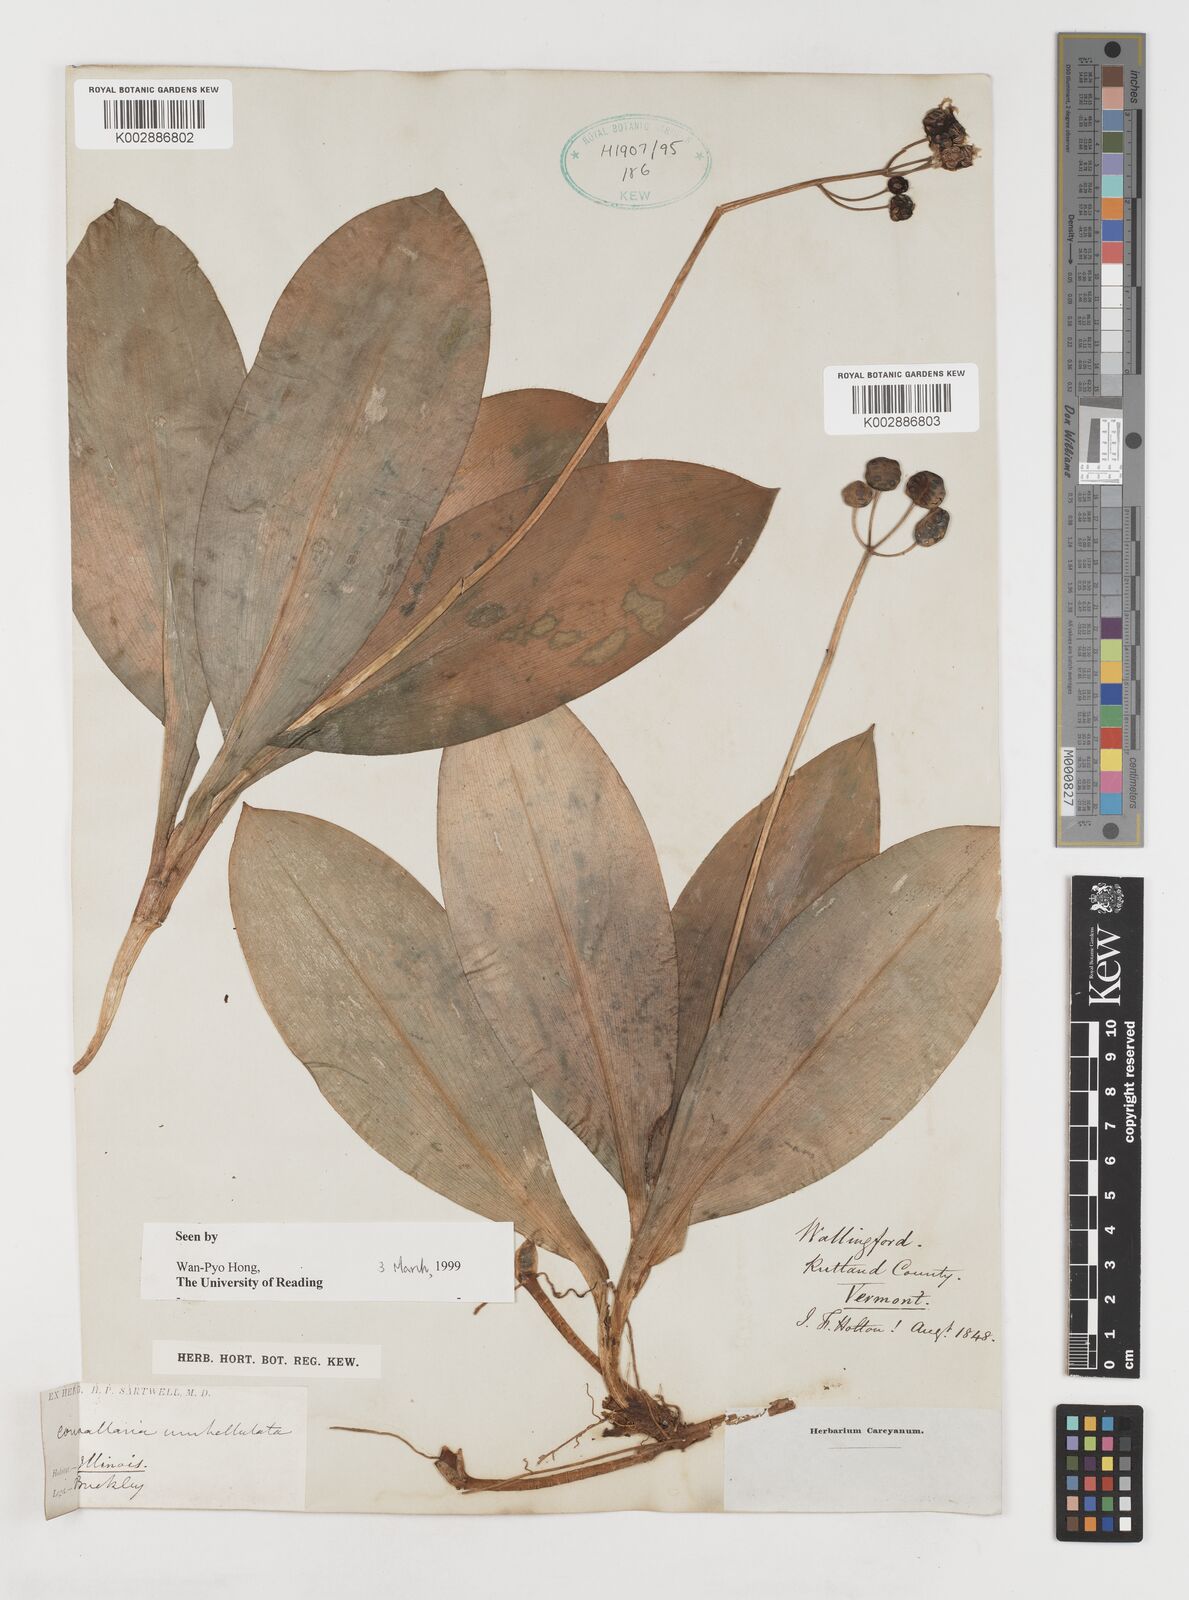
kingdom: Plantae
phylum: Tracheophyta
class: Liliopsida
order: Liliales
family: Liliaceae
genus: Clintonia
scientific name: Clintonia umbellulata
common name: Speckle wood-lily
